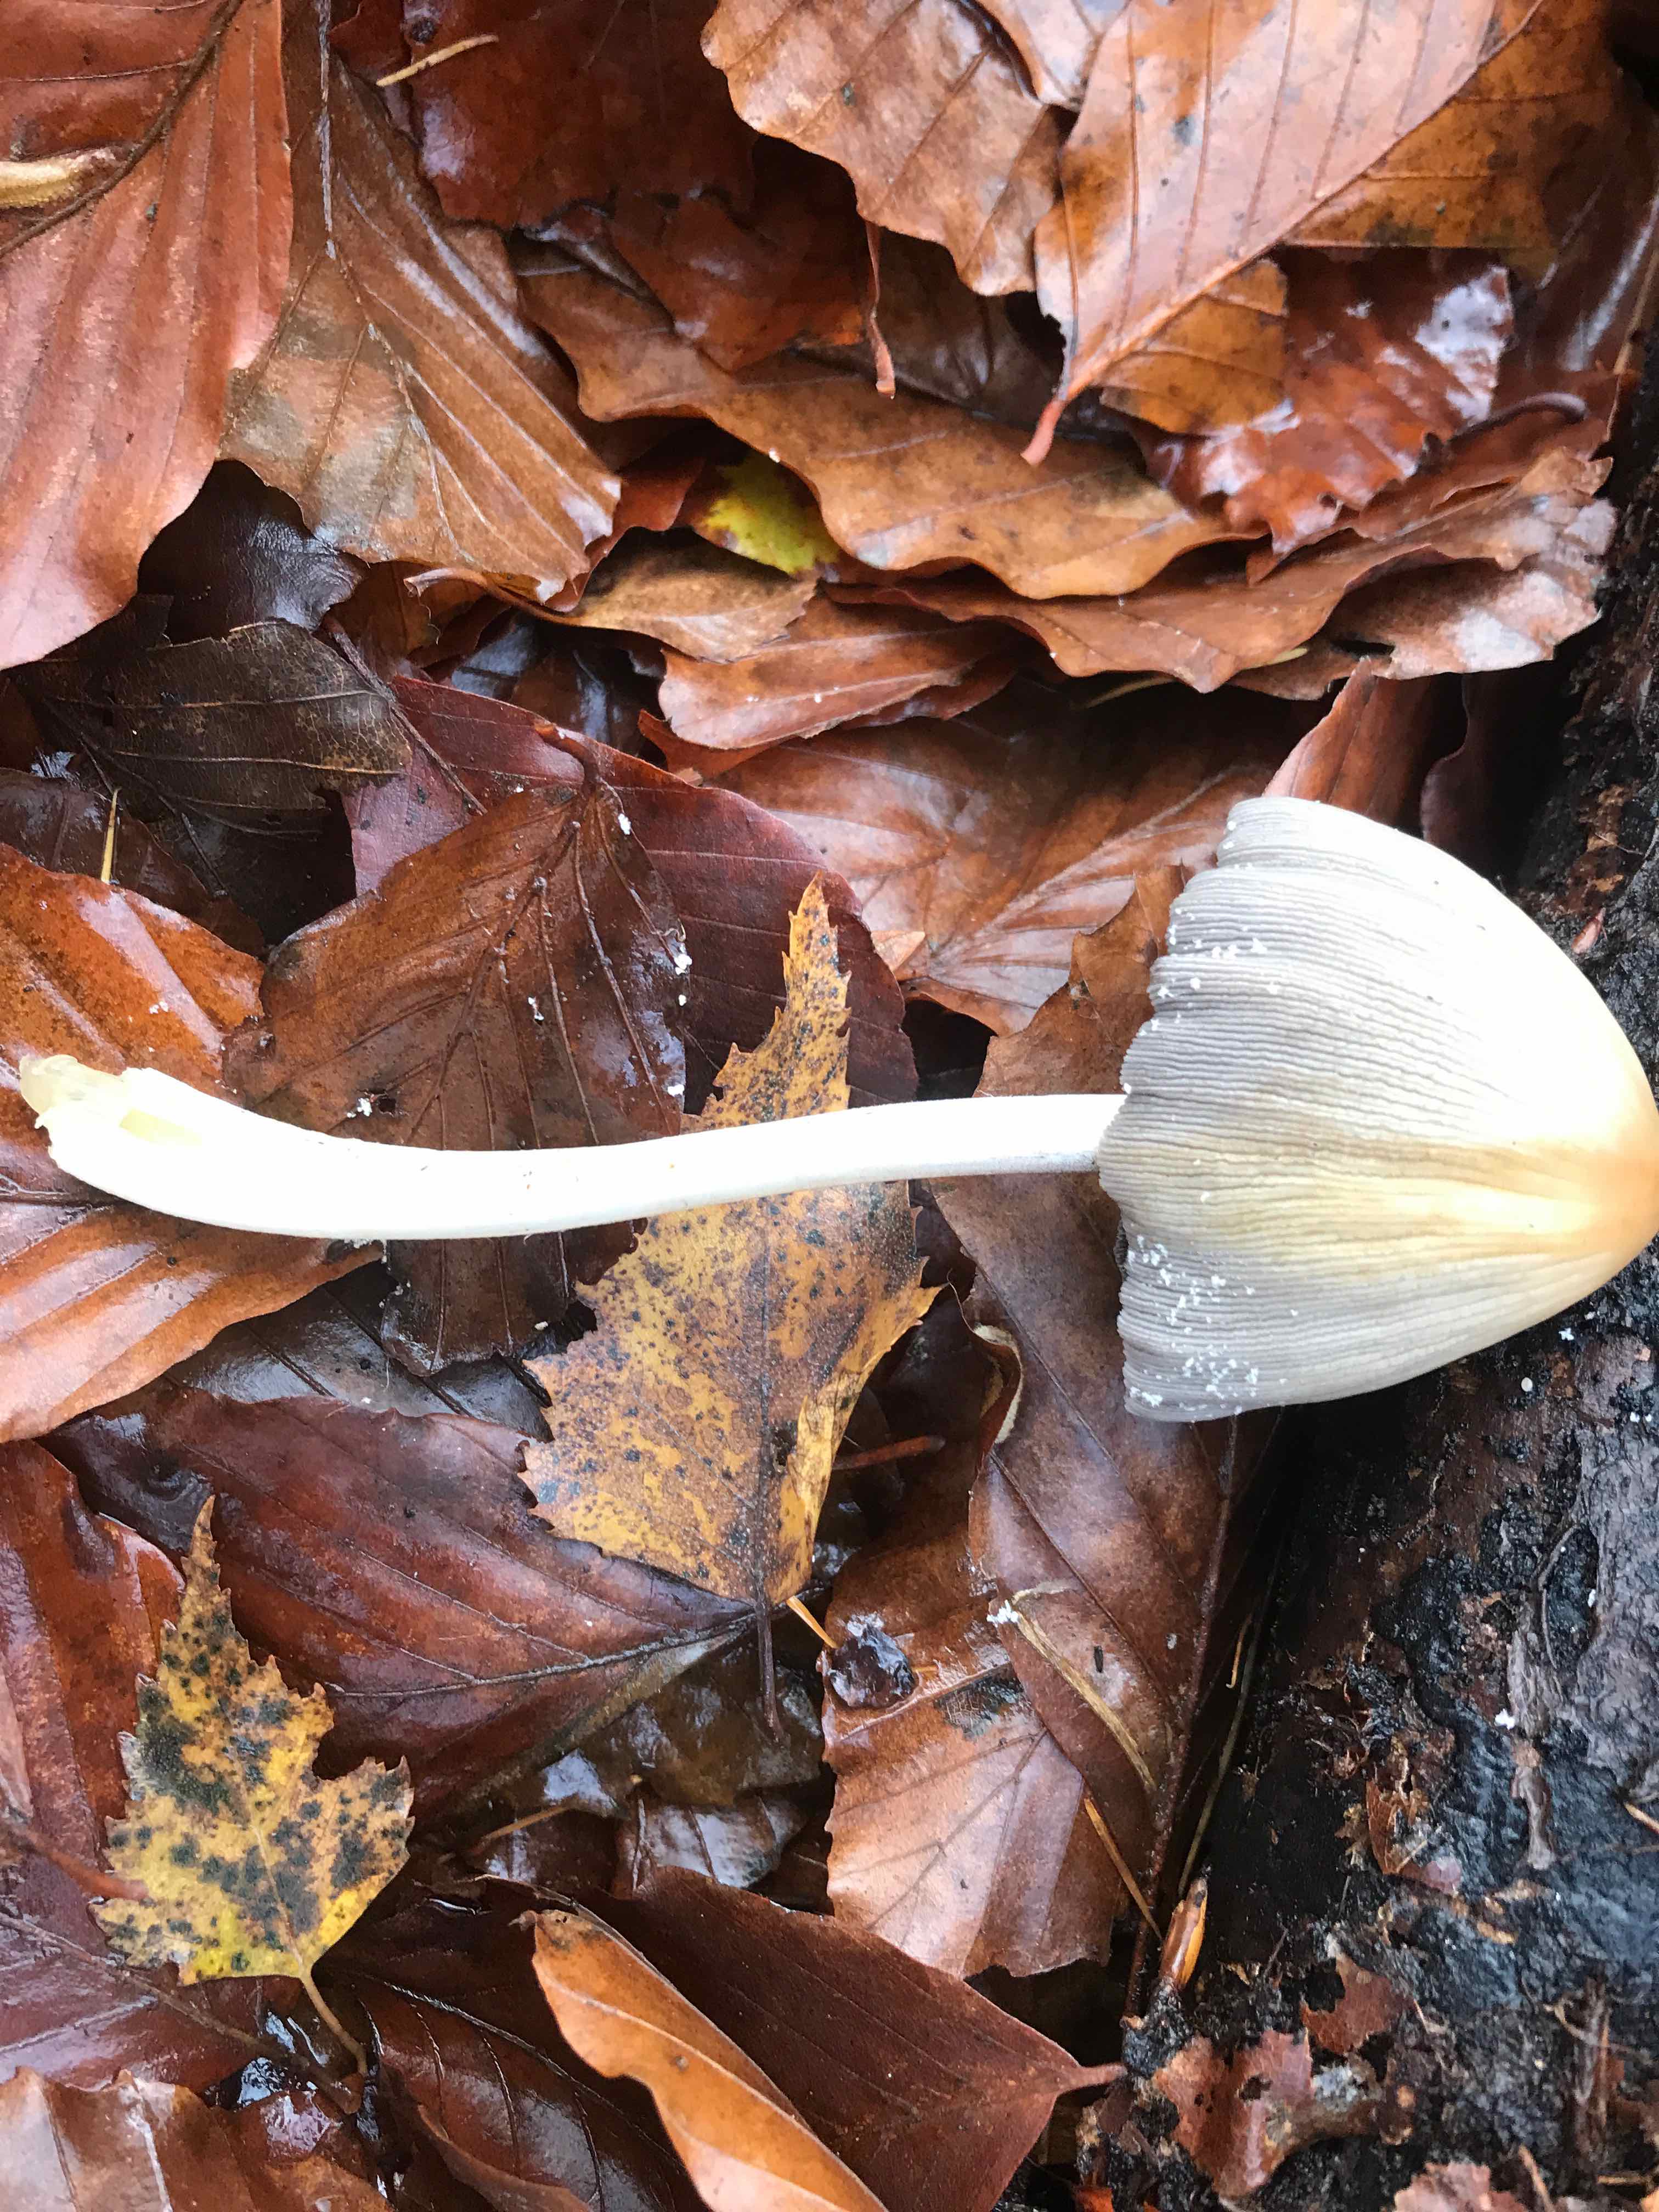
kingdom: Fungi
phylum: Basidiomycota
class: Agaricomycetes
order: Agaricales
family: Psathyrellaceae
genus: Coprinellus
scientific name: Coprinellus
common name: blækhat
